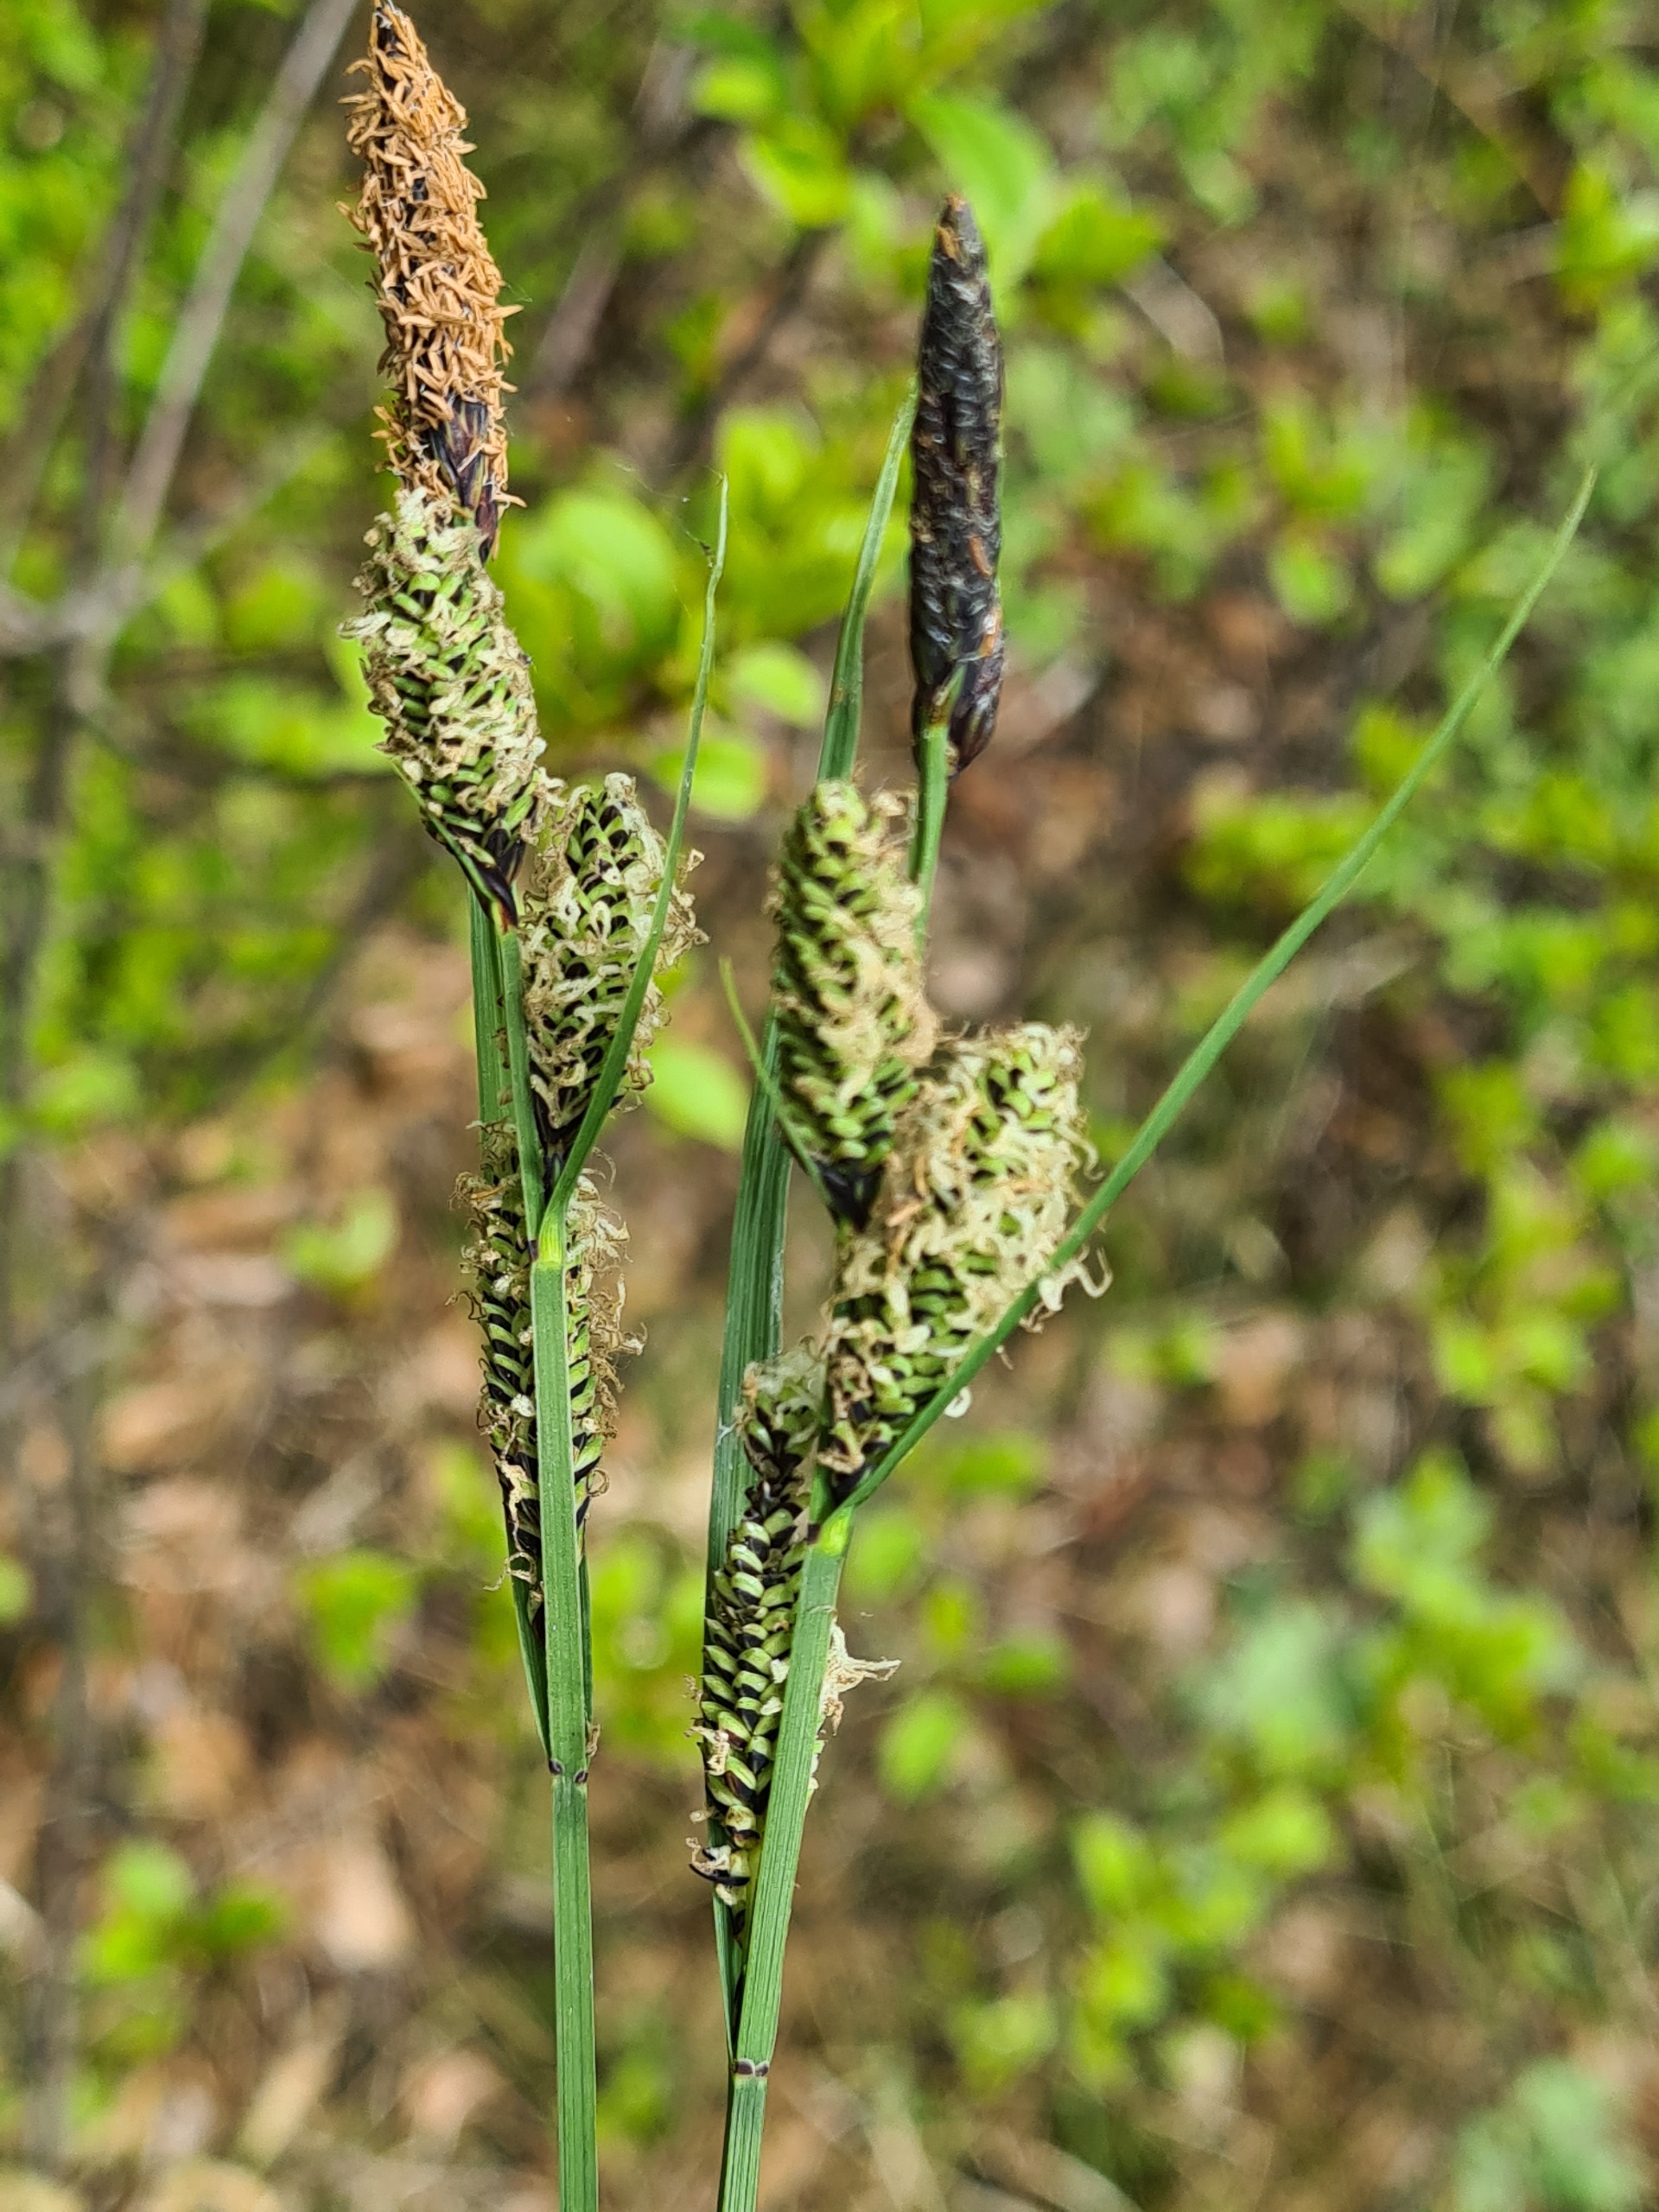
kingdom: Plantae
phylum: Tracheophyta
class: Liliopsida
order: Poales
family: Cyperaceae
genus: Carex
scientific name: Carex nigra
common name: Almindelig star
